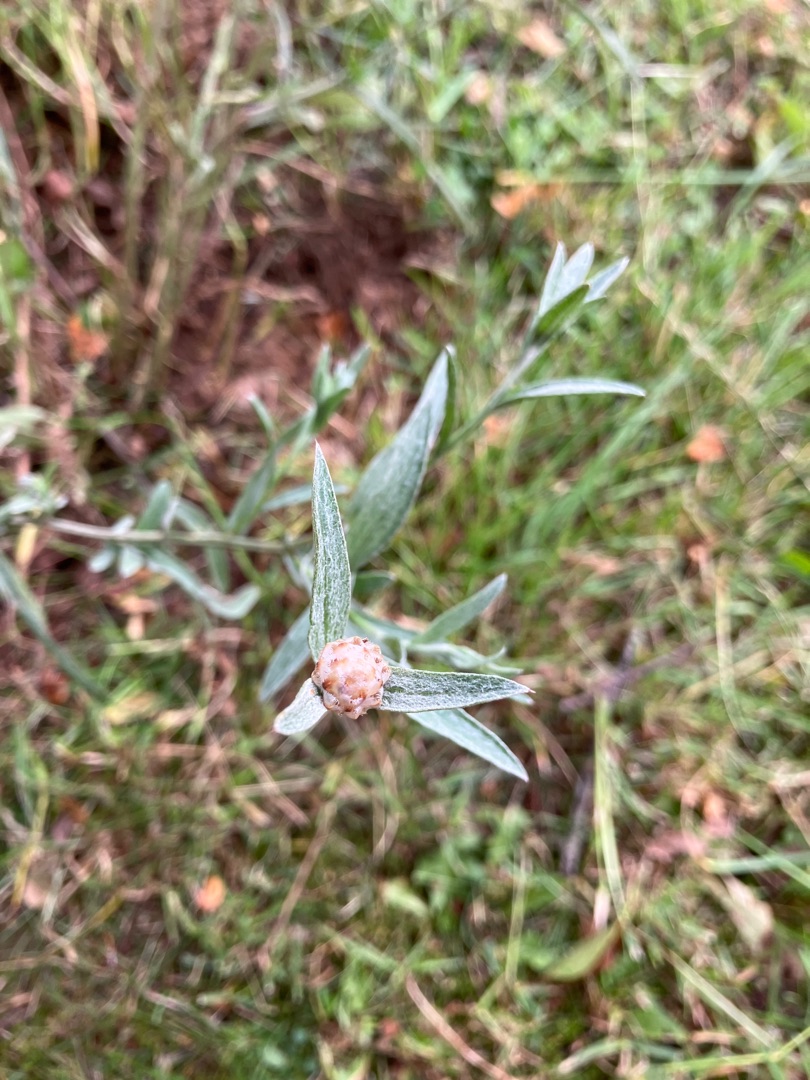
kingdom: Plantae
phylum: Tracheophyta
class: Magnoliopsida
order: Asterales
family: Asteraceae
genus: Centaurea
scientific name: Centaurea jacea
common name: Almindelig knopurt
